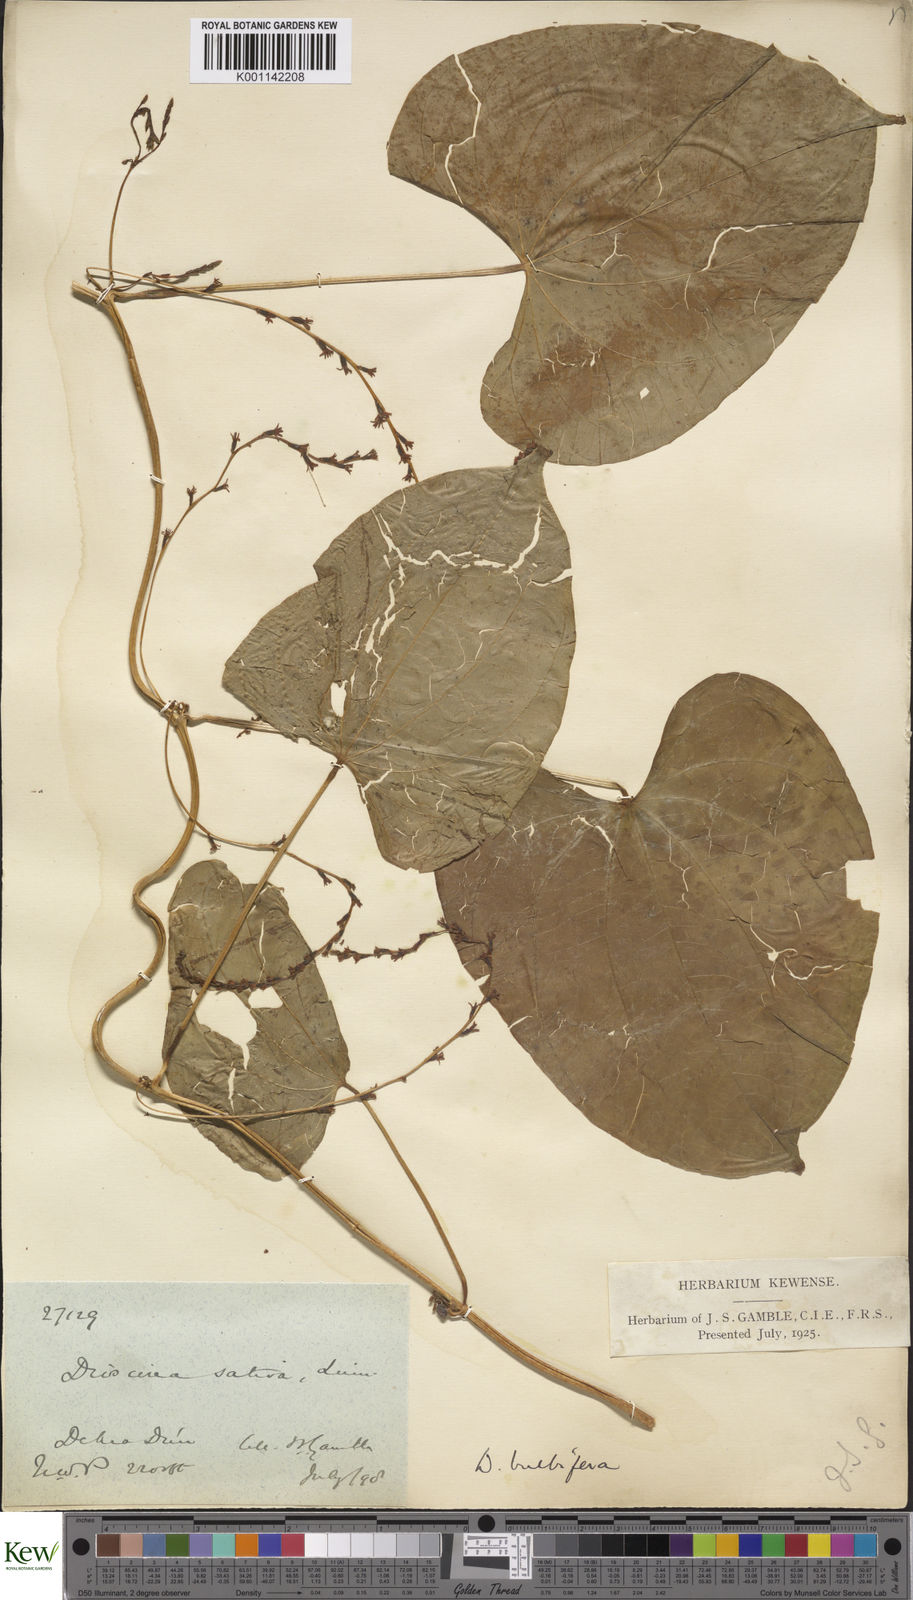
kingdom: Plantae
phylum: Tracheophyta
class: Liliopsida
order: Dioscoreales
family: Dioscoreaceae
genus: Dioscorea
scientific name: Dioscorea bulbifera
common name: Air yam
